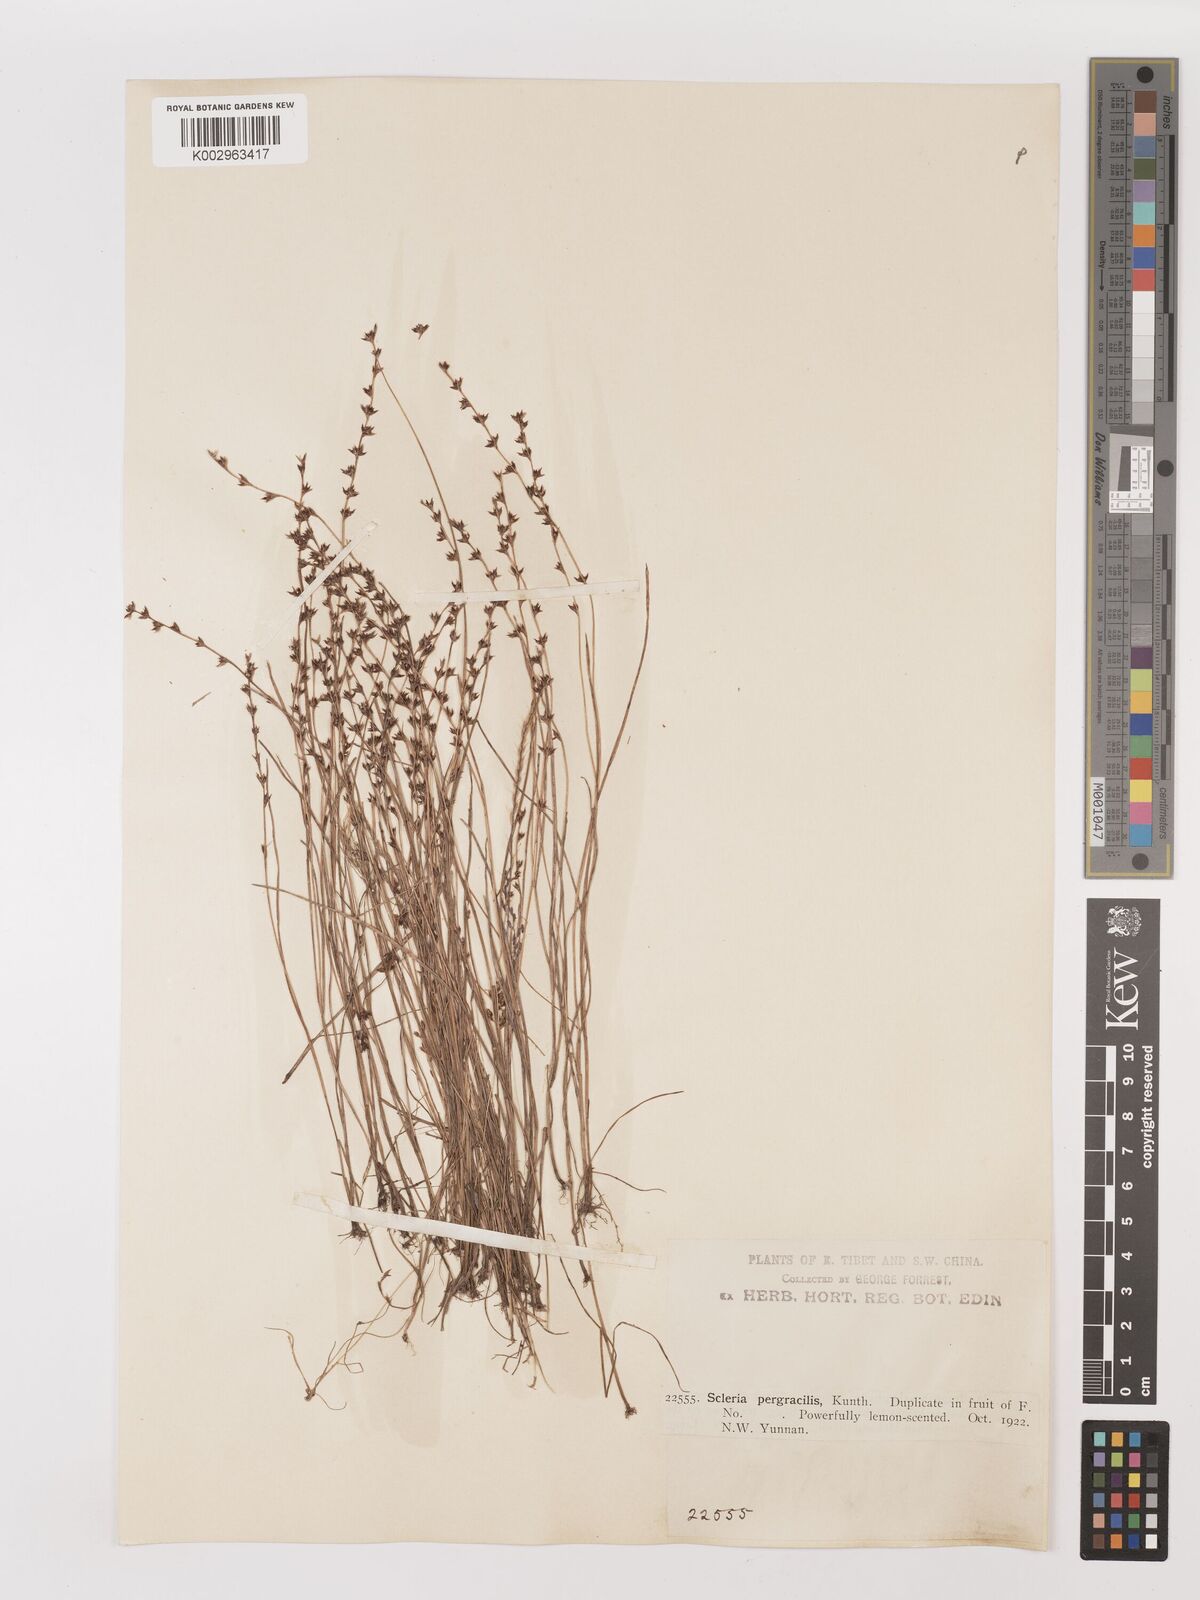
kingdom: Plantae
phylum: Tracheophyta
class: Liliopsida
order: Poales
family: Cyperaceae
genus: Scleria
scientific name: Scleria pergracilis
